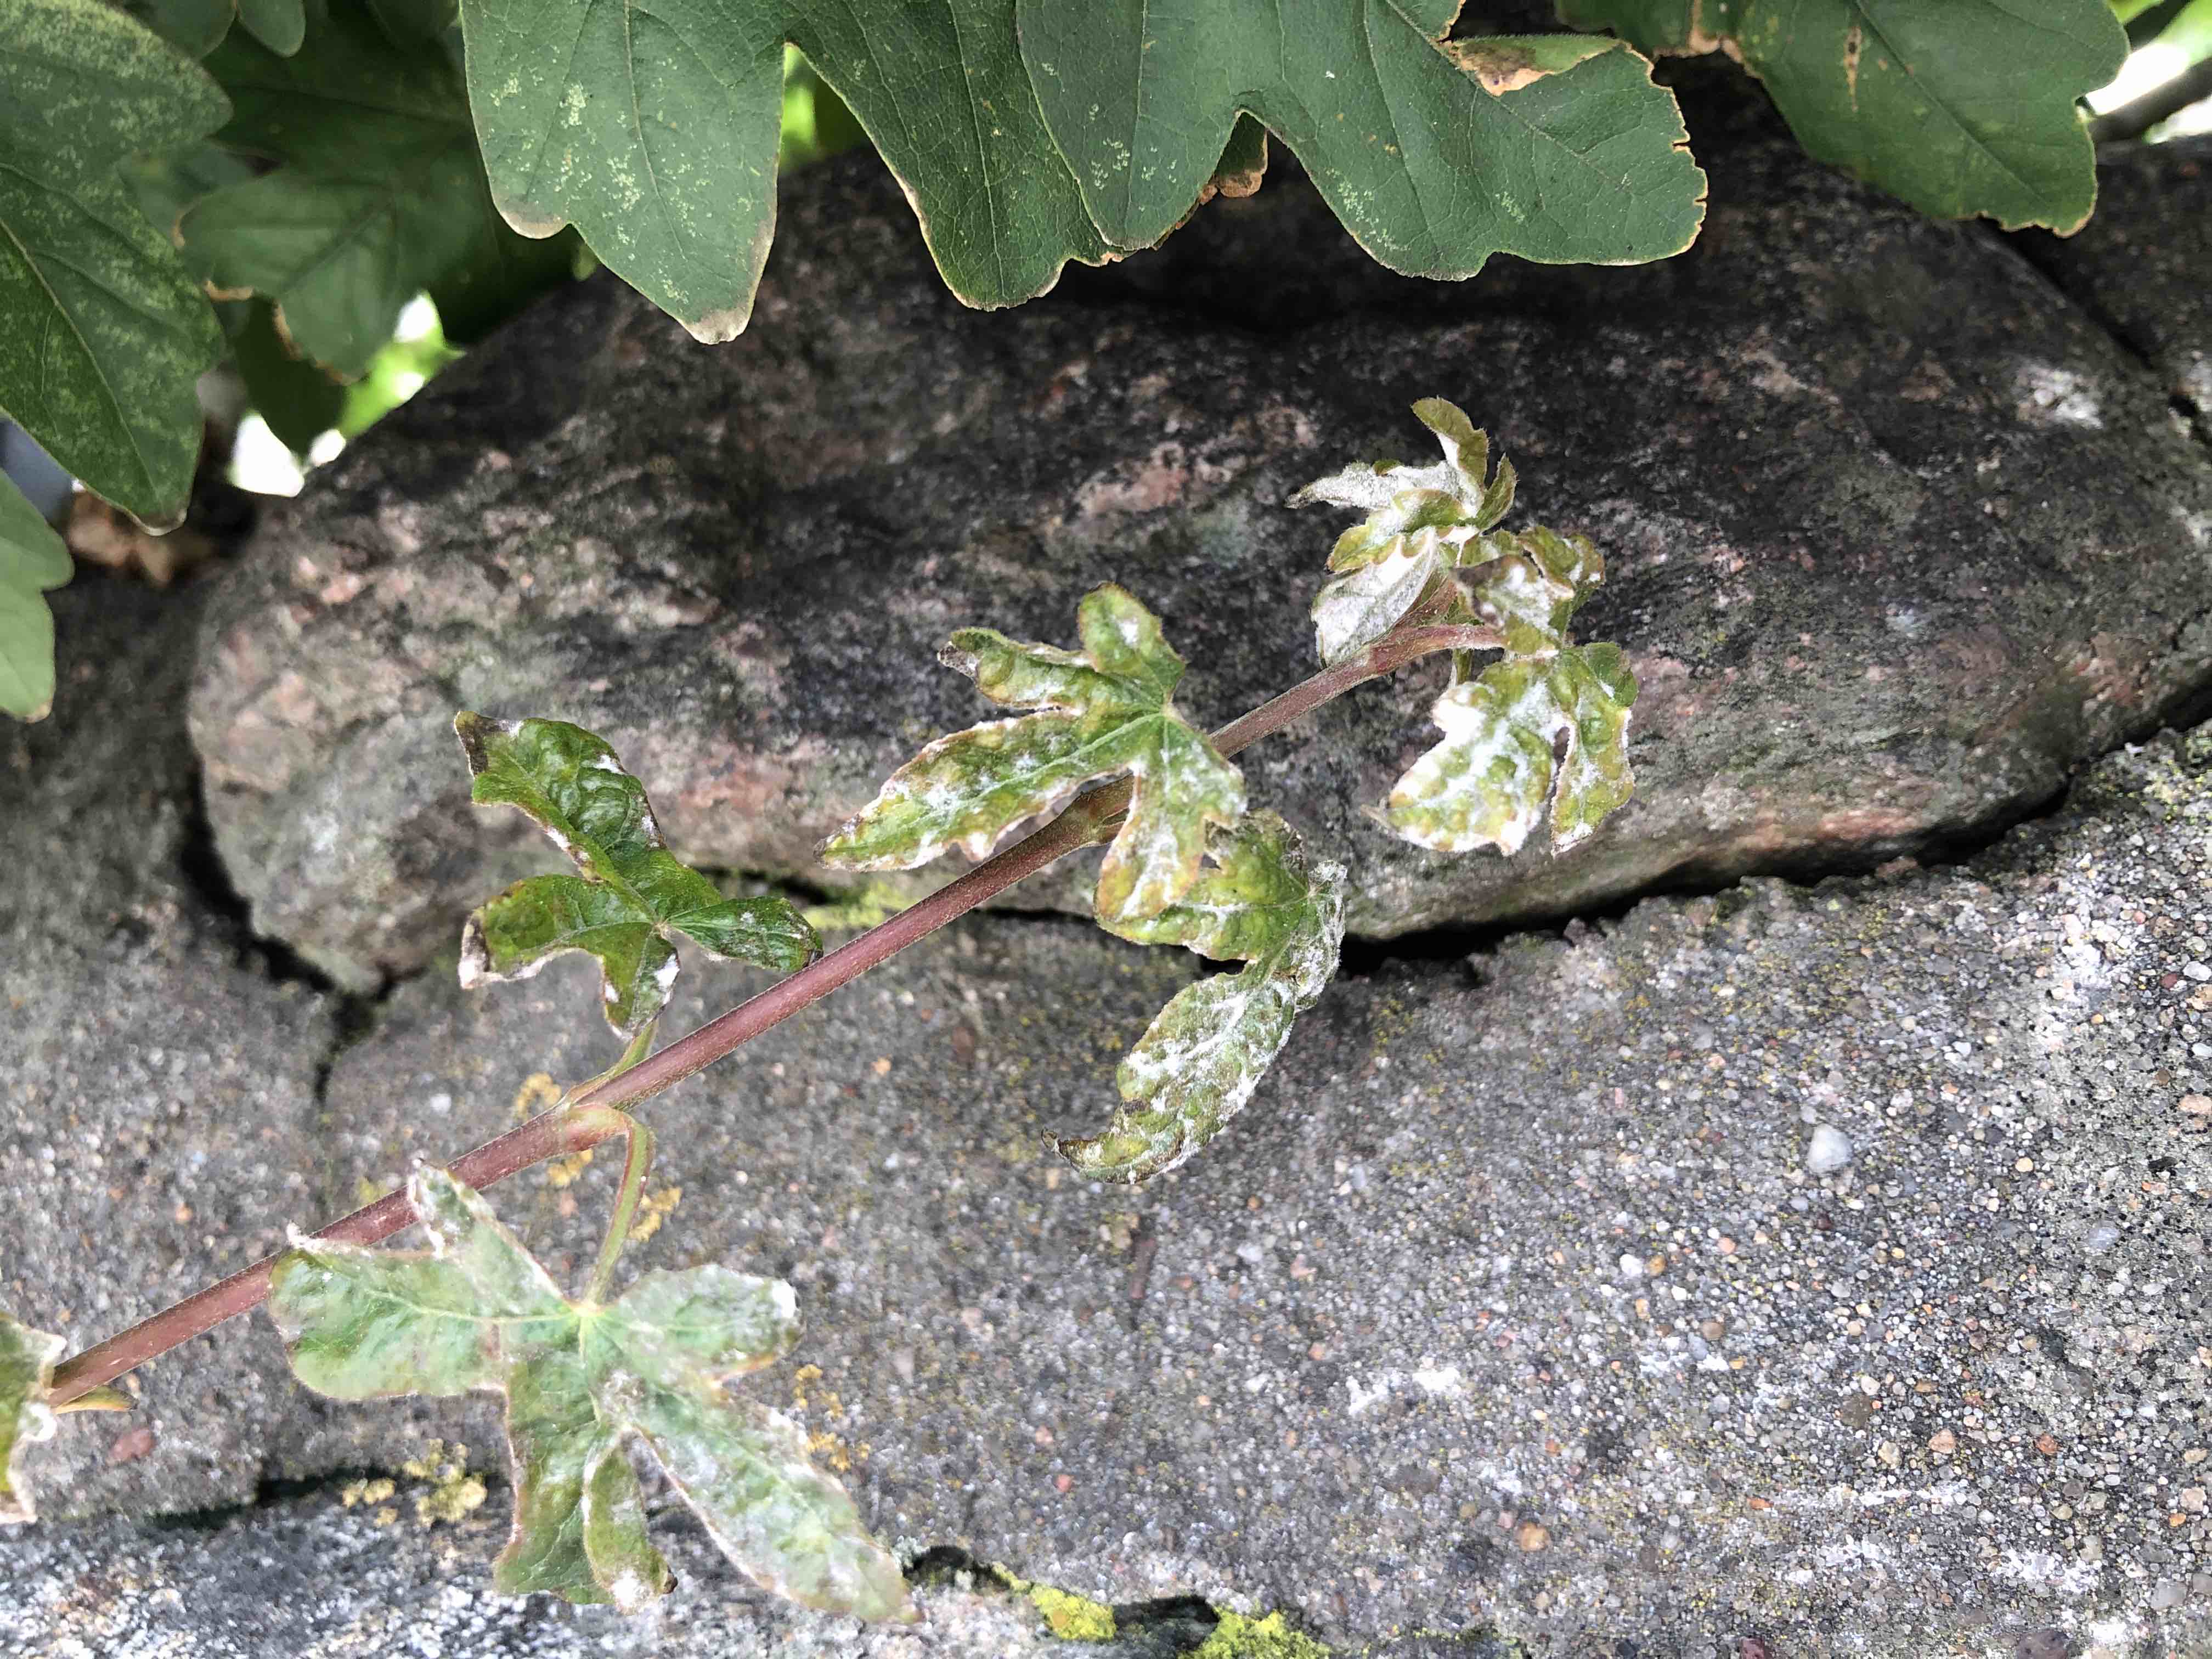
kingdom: Fungi
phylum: Ascomycota
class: Leotiomycetes
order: Helotiales
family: Erysiphaceae
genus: Sawadaea
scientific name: Sawadaea bicornis
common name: Maple mildew
